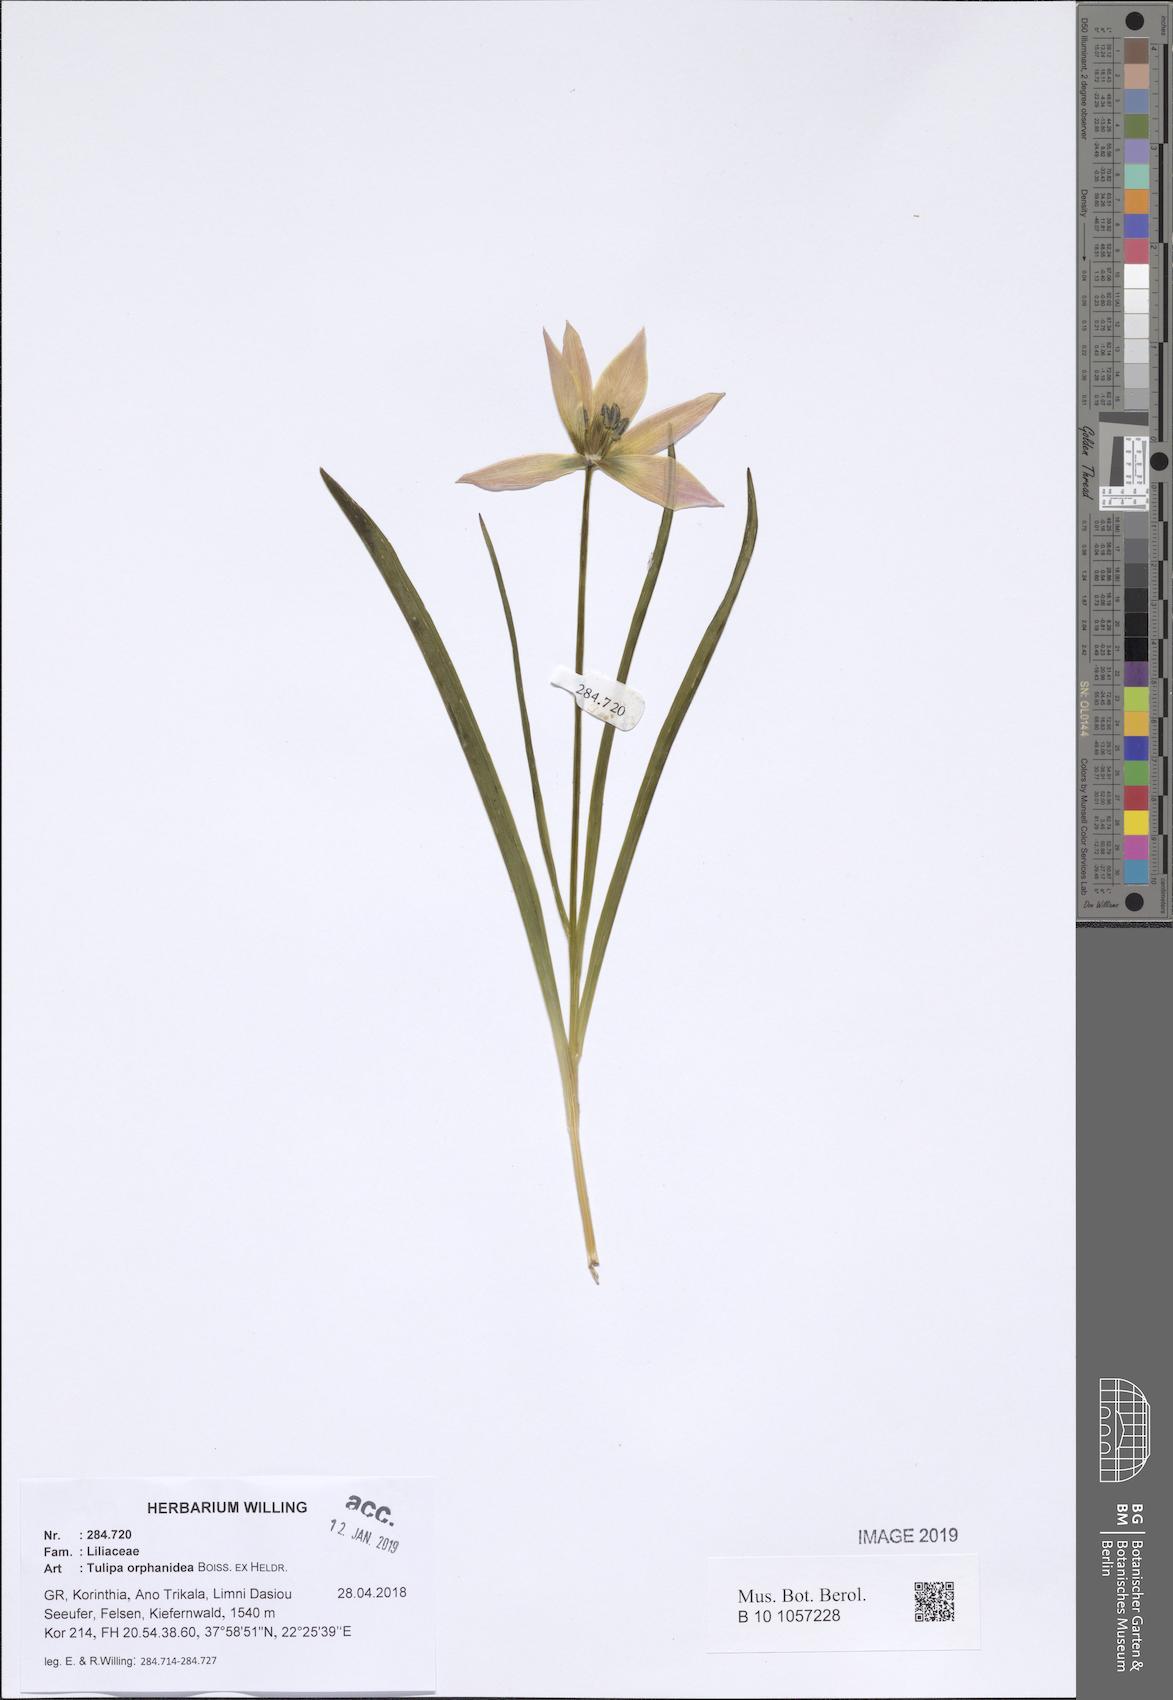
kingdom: Plantae
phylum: Tracheophyta
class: Liliopsida
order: Liliales
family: Liliaceae
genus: Tulipa
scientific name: Tulipa orphanidea
